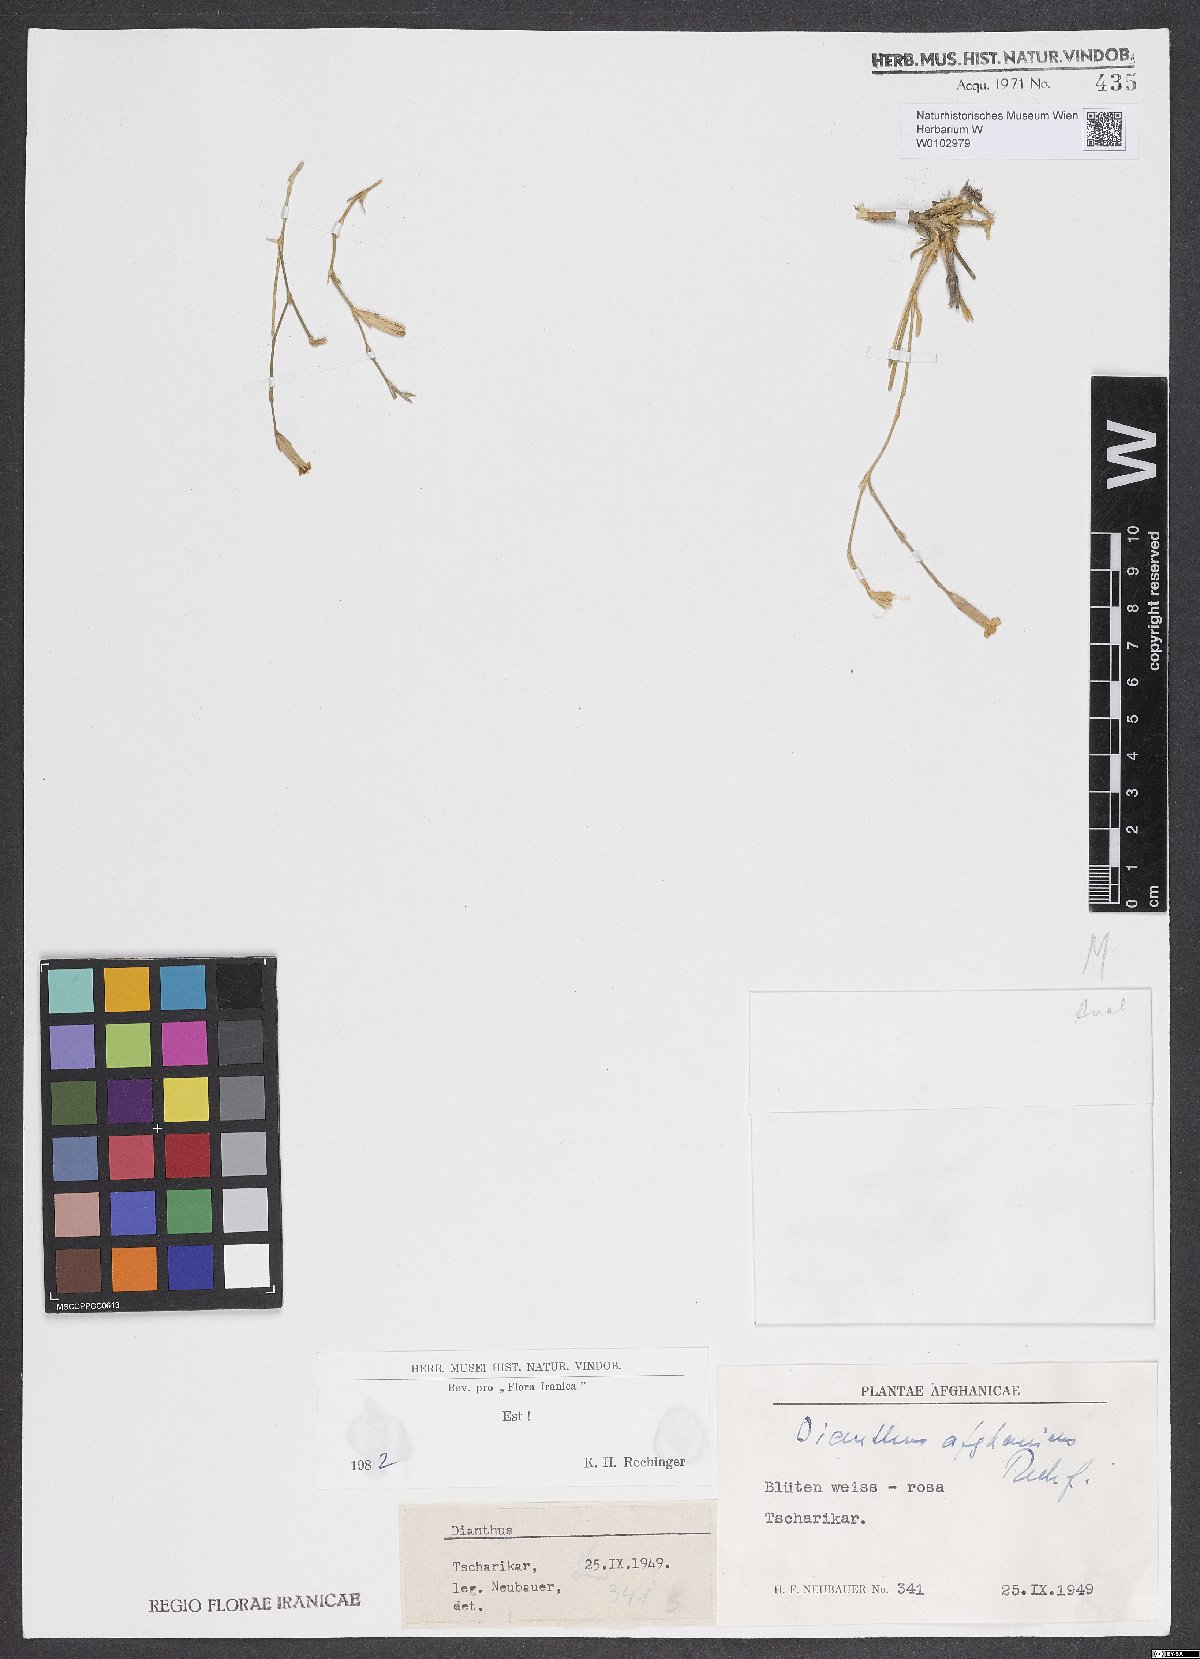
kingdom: Plantae
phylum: Tracheophyta
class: Magnoliopsida
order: Caryophyllales
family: Caryophyllaceae
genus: Dianthus
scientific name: Dianthus afghanicus
